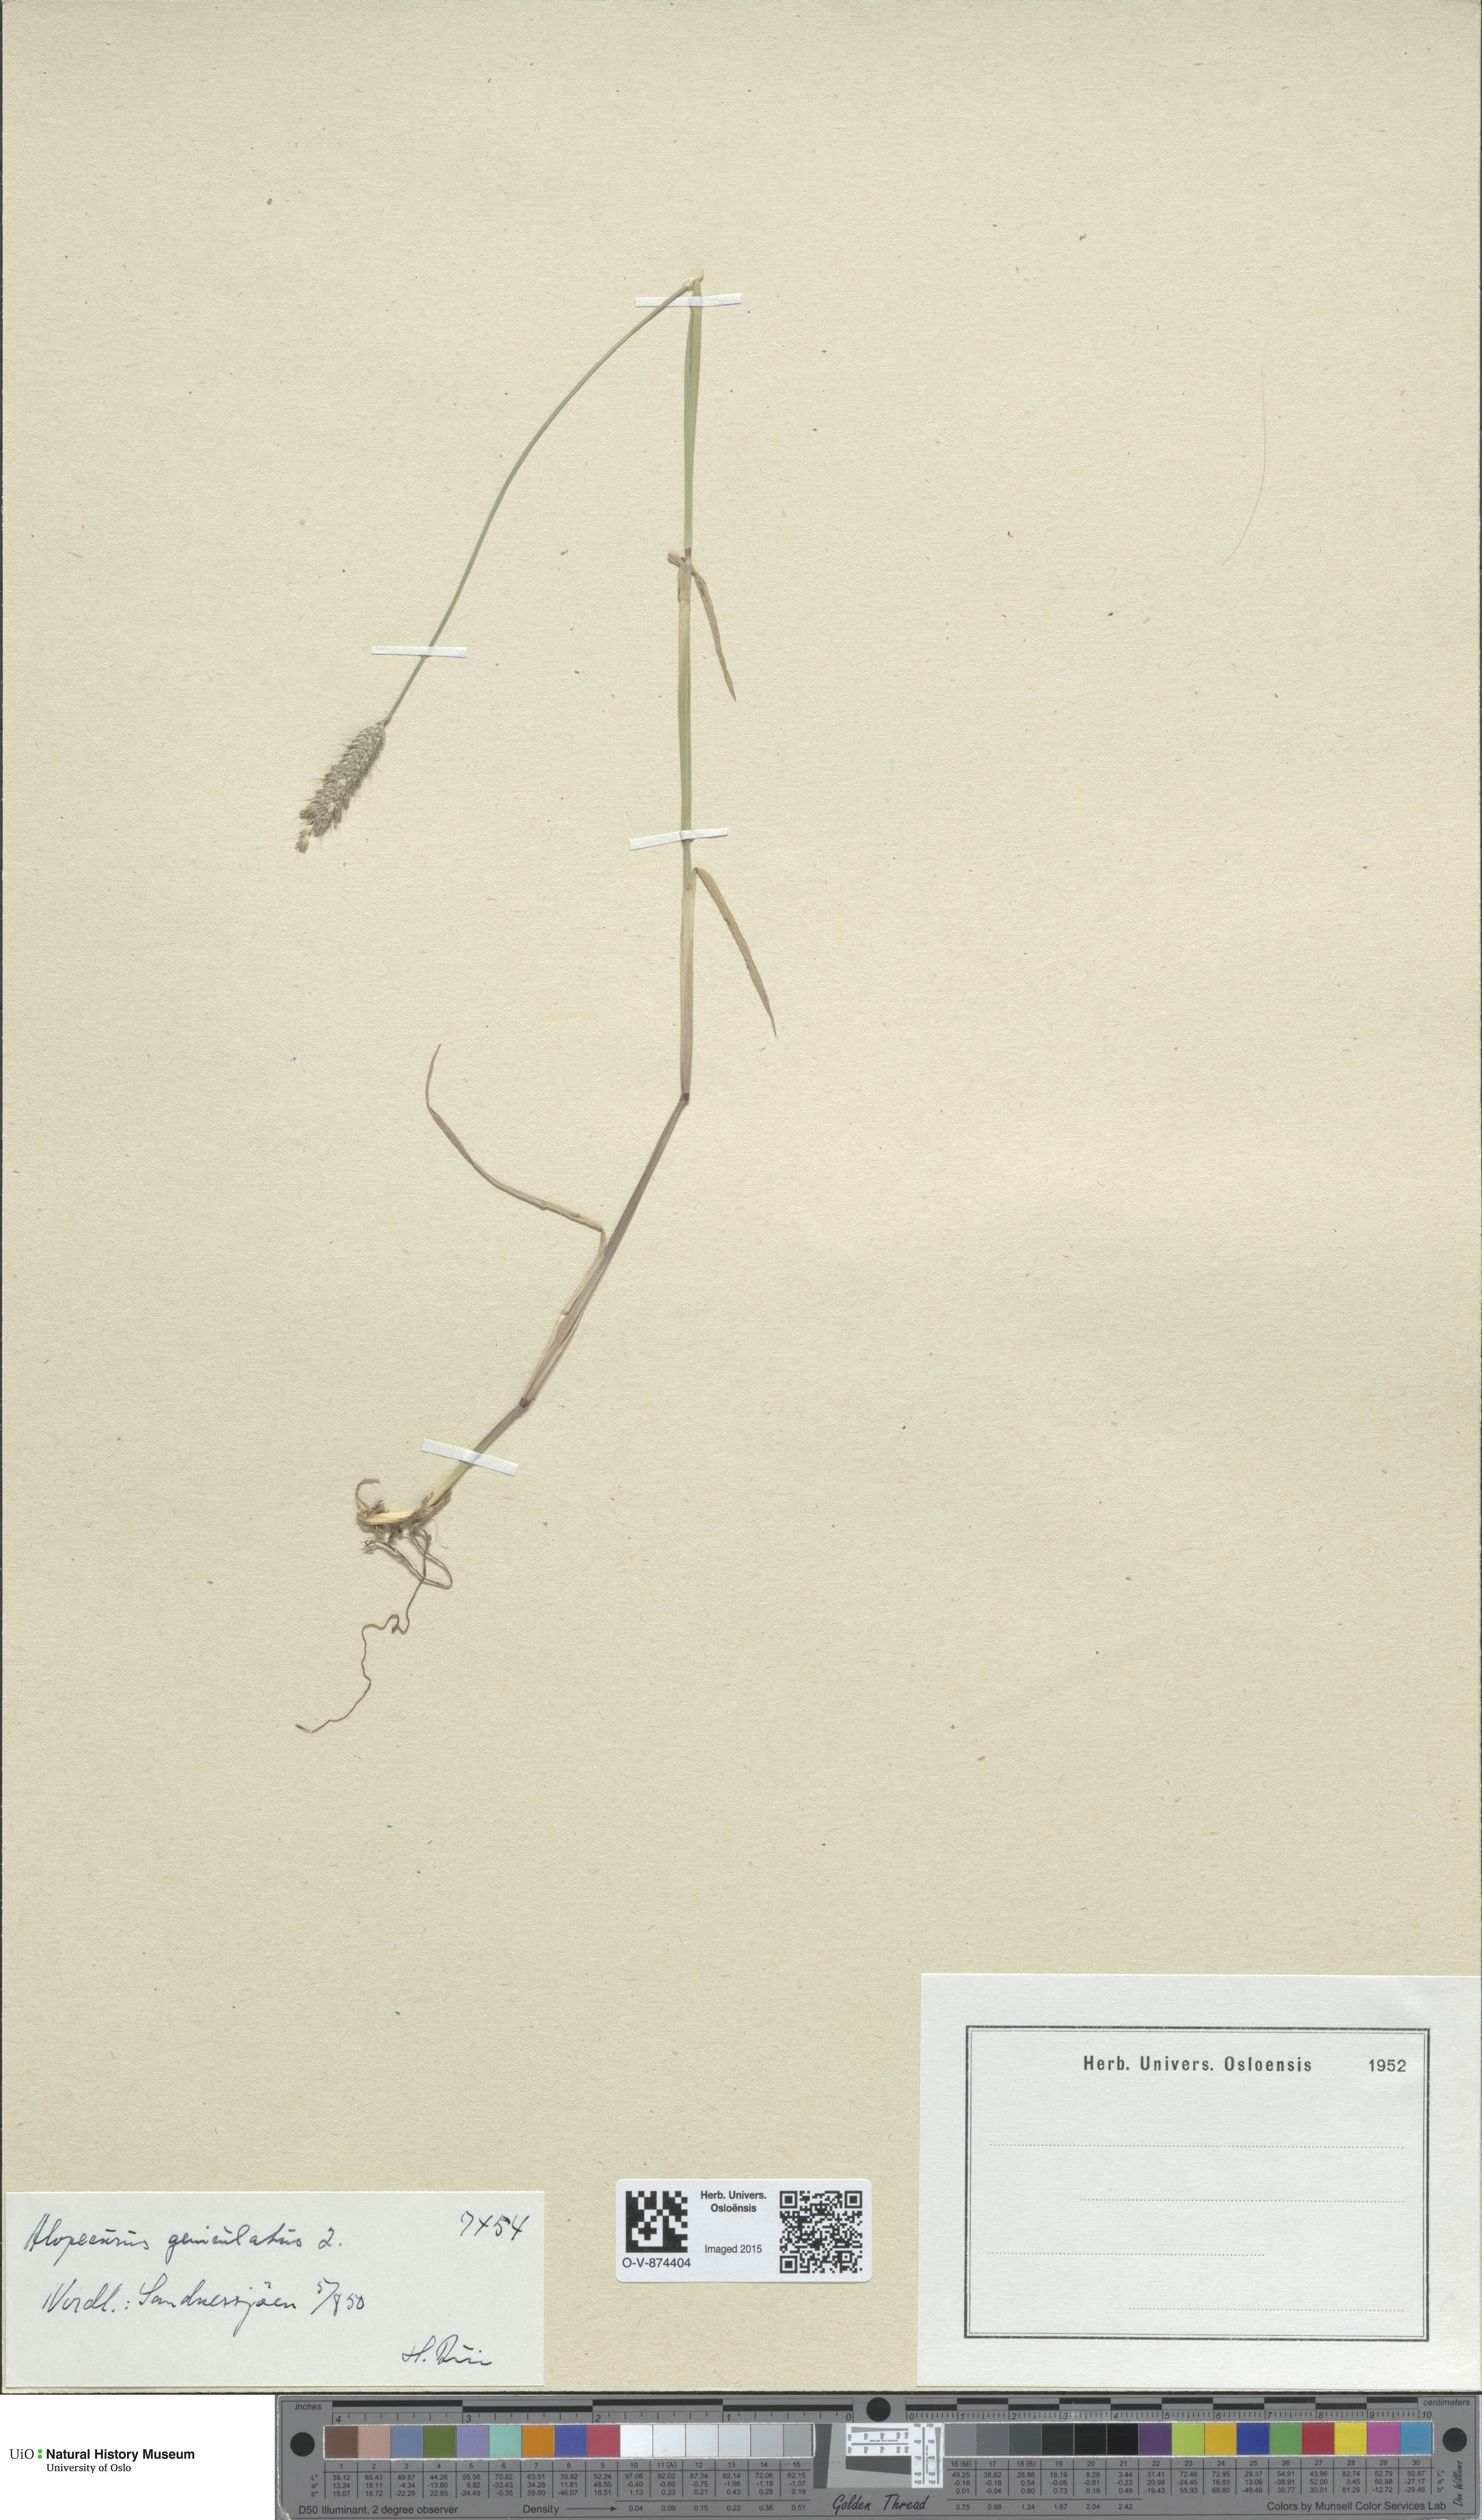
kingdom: Plantae
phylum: Tracheophyta
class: Liliopsida
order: Poales
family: Poaceae
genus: Alopecurus
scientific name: Alopecurus geniculatus
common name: Water foxtail
